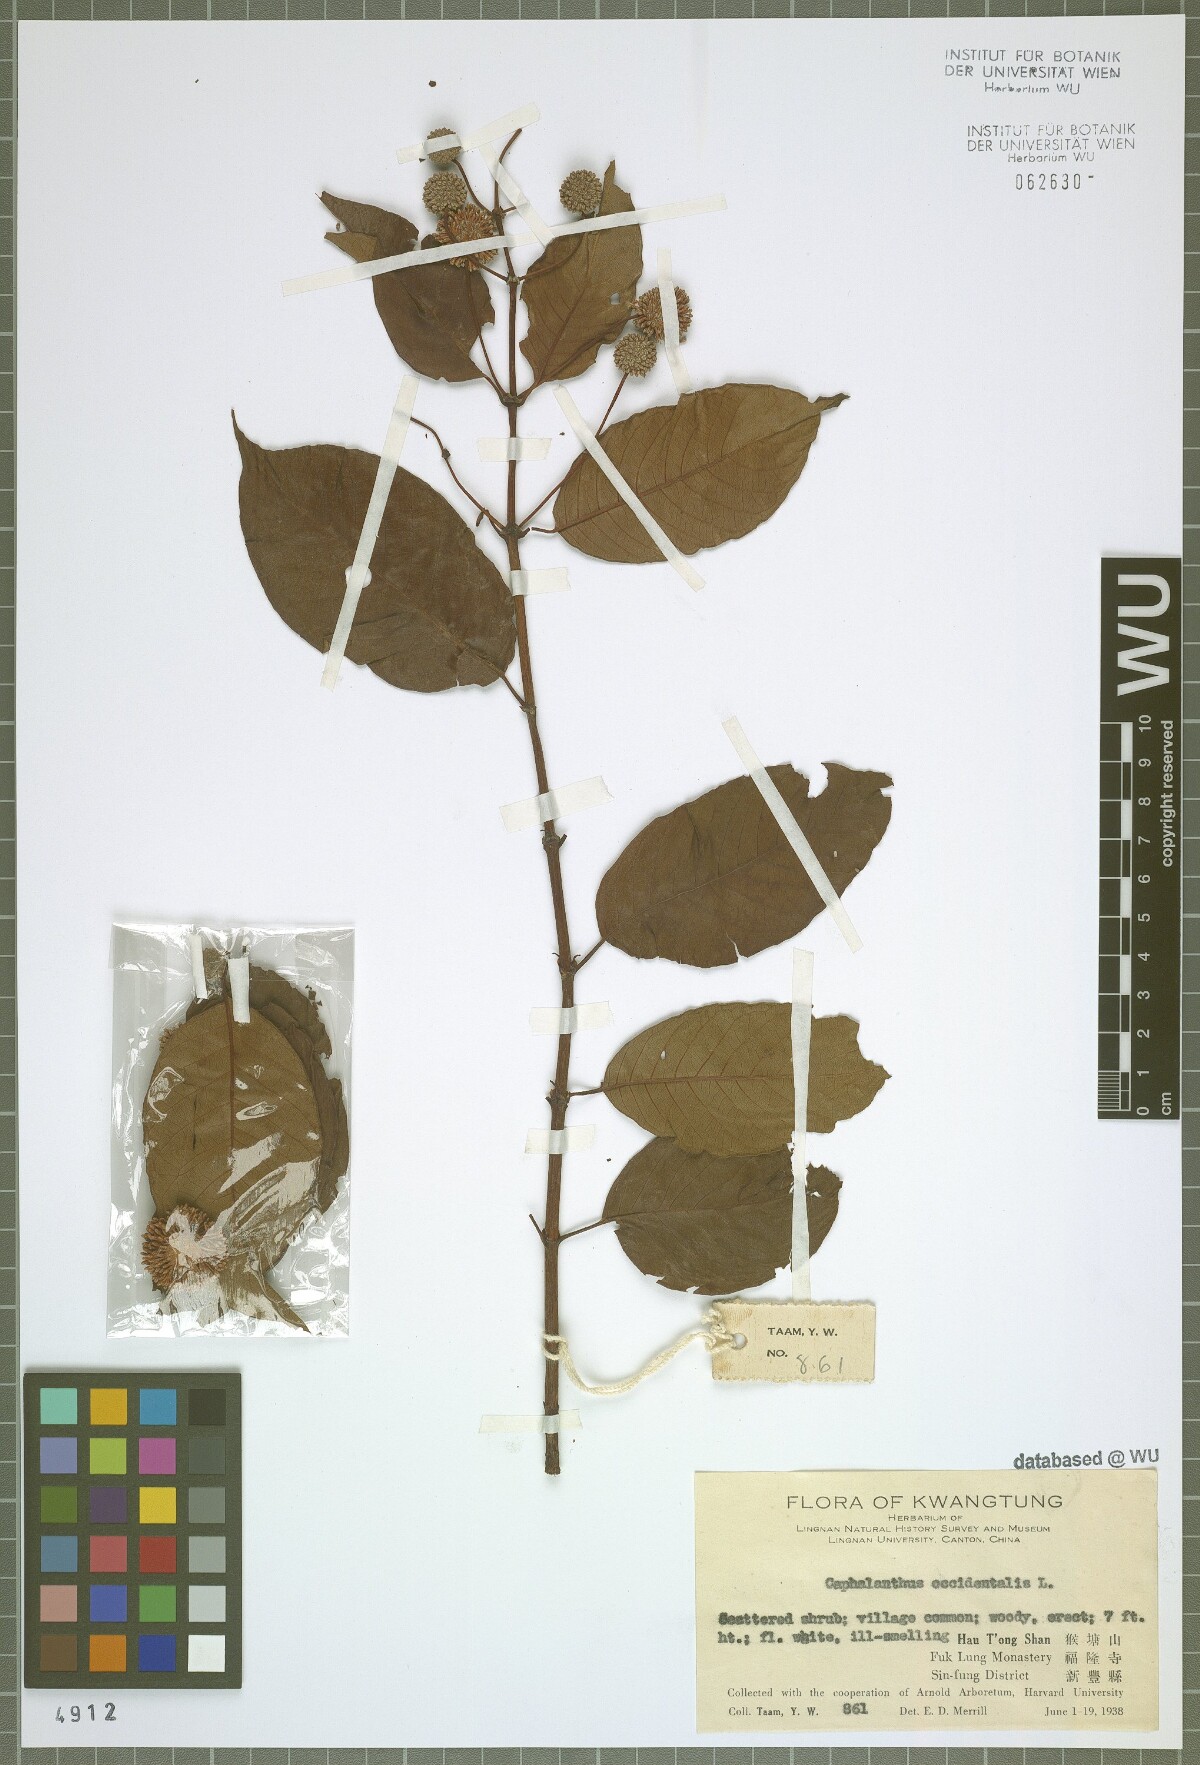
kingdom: Plantae
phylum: Tracheophyta
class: Magnoliopsida
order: Gentianales
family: Rubiaceae
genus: Cephalanthus
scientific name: Cephalanthus occidentalis
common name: Button-willow
